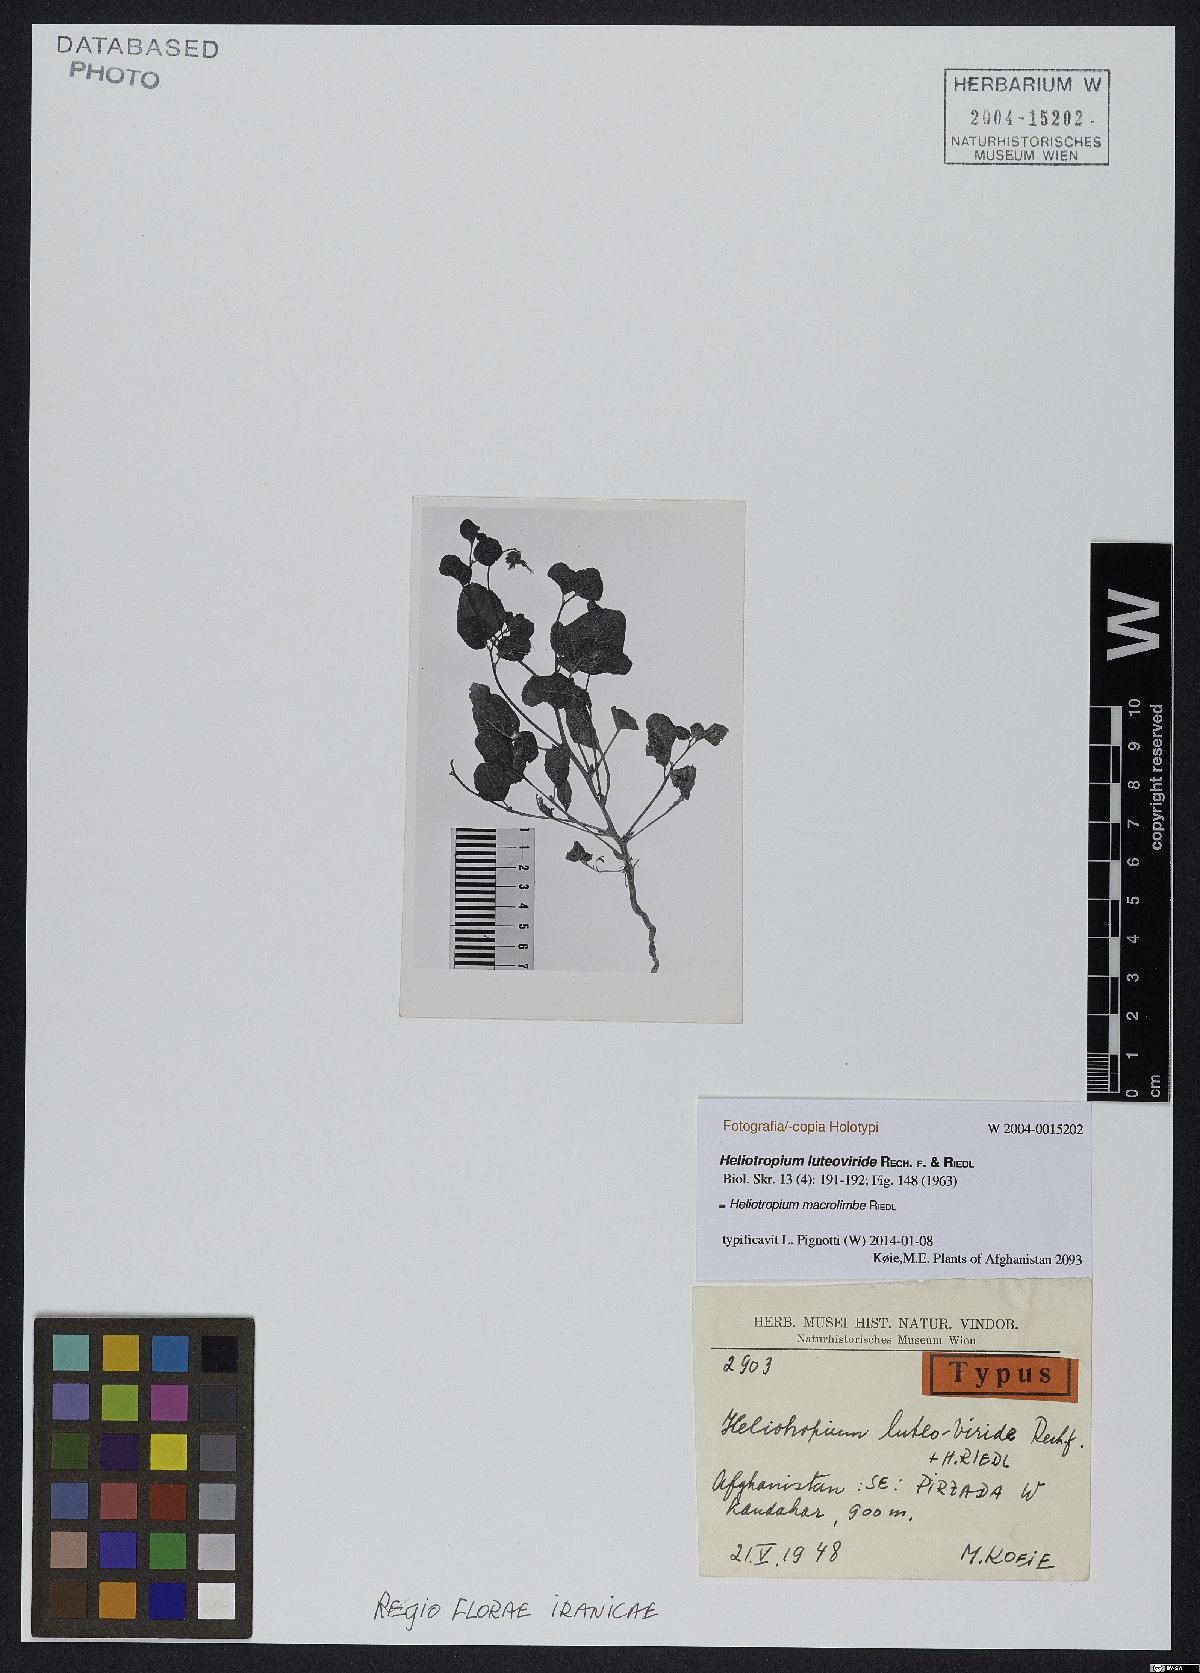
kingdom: Plantae
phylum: Tracheophyta
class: Magnoliopsida
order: Boraginales
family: Heliotropiaceae
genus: Heliotropium
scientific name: Heliotropium macrolimbe
